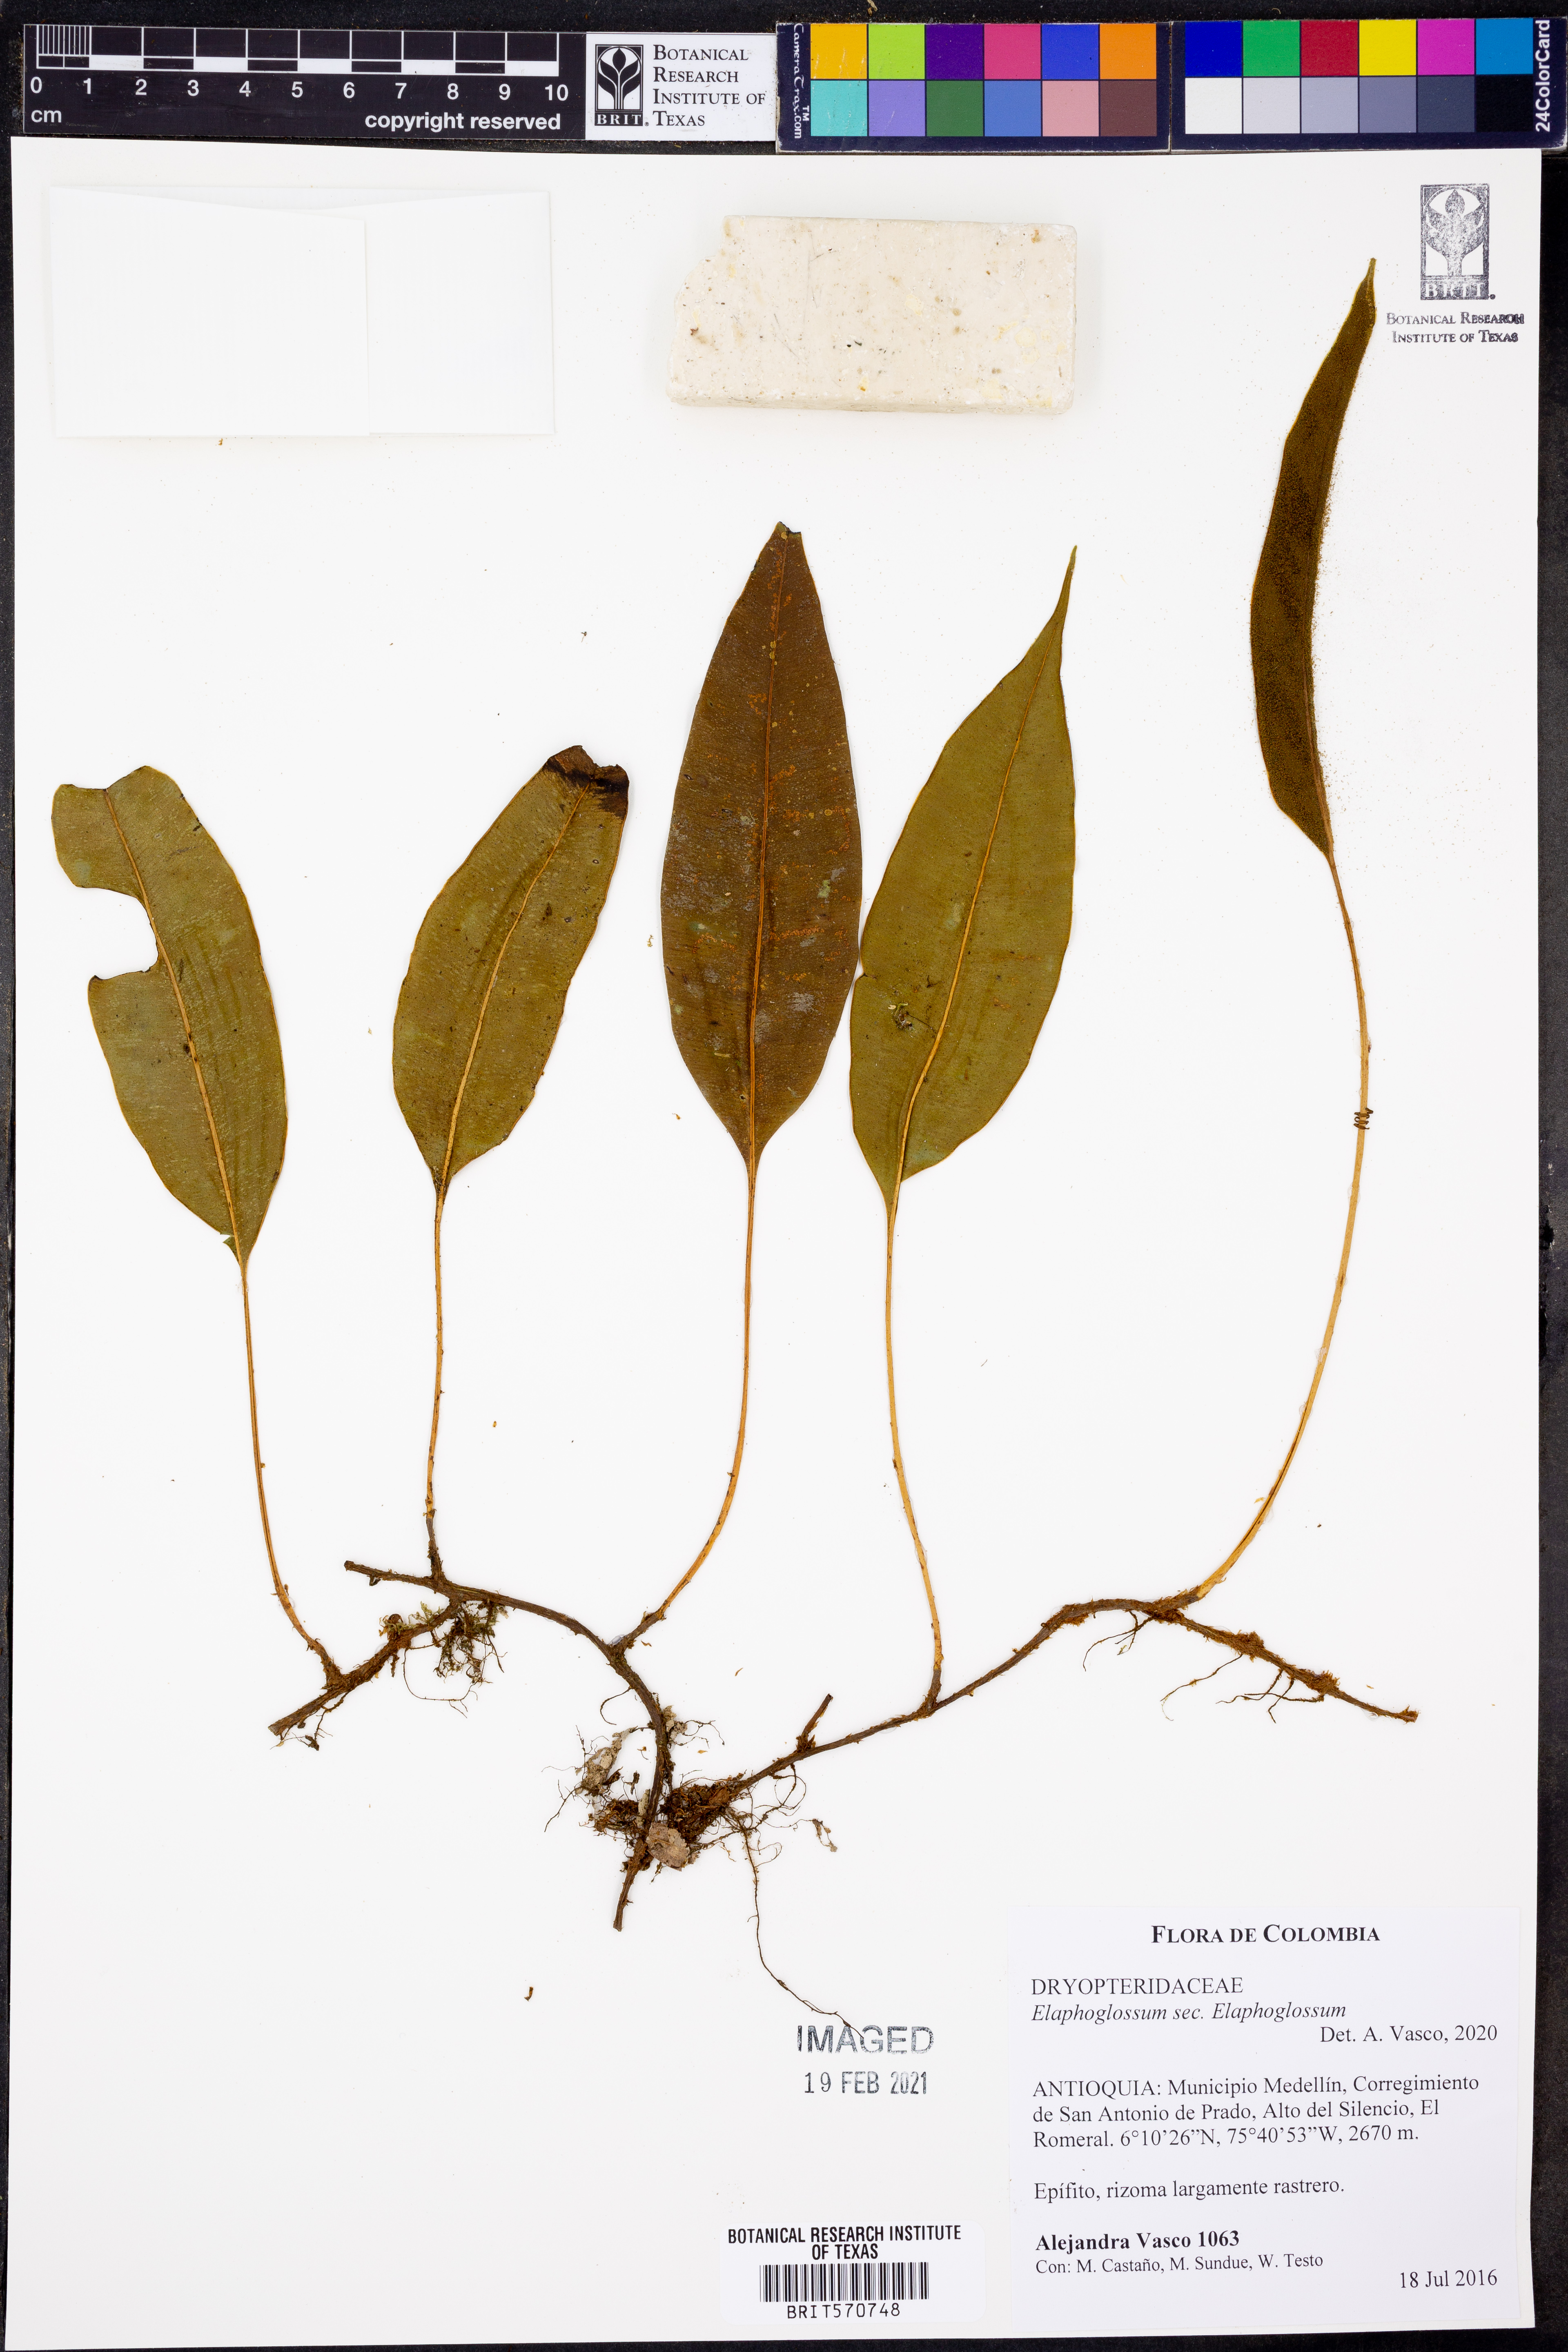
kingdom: Plantae
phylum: Tracheophyta
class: Polypodiopsida
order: Polypodiales
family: Dryopteridaceae
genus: Elaphoglossum
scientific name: Elaphoglossum
